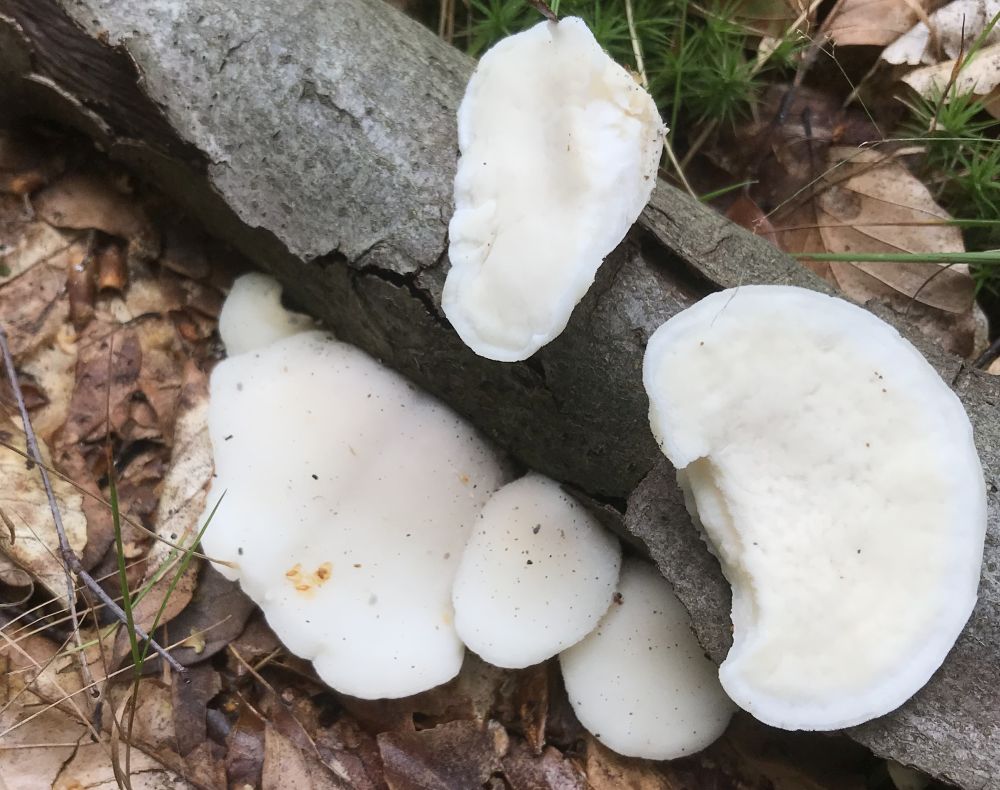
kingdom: Fungi
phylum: Basidiomycota
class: Agaricomycetes
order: Polyporales
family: Incrustoporiaceae
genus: Tyromyces
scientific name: Tyromyces chioneus
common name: stor blødporesvamp
